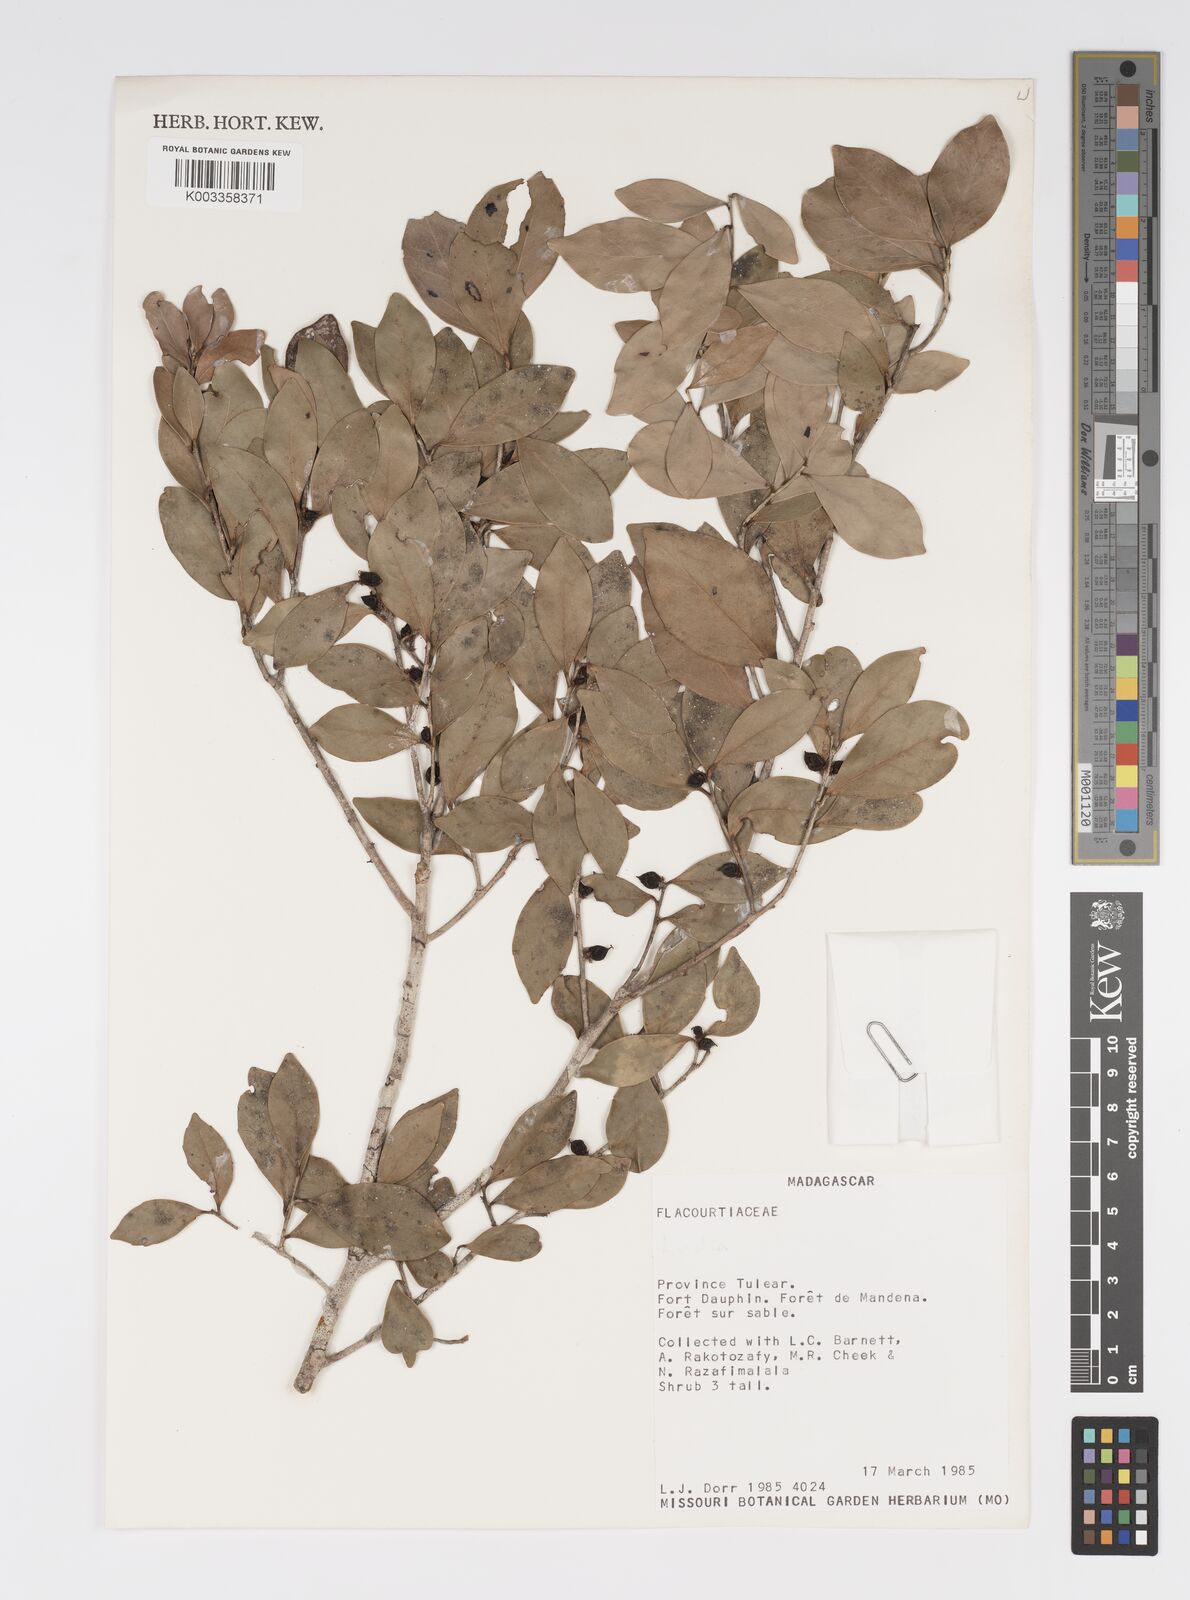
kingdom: Plantae
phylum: Tracheophyta
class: Magnoliopsida
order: Malpighiales
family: Salicaceae
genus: Ludia
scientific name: Ludia antanosarum
